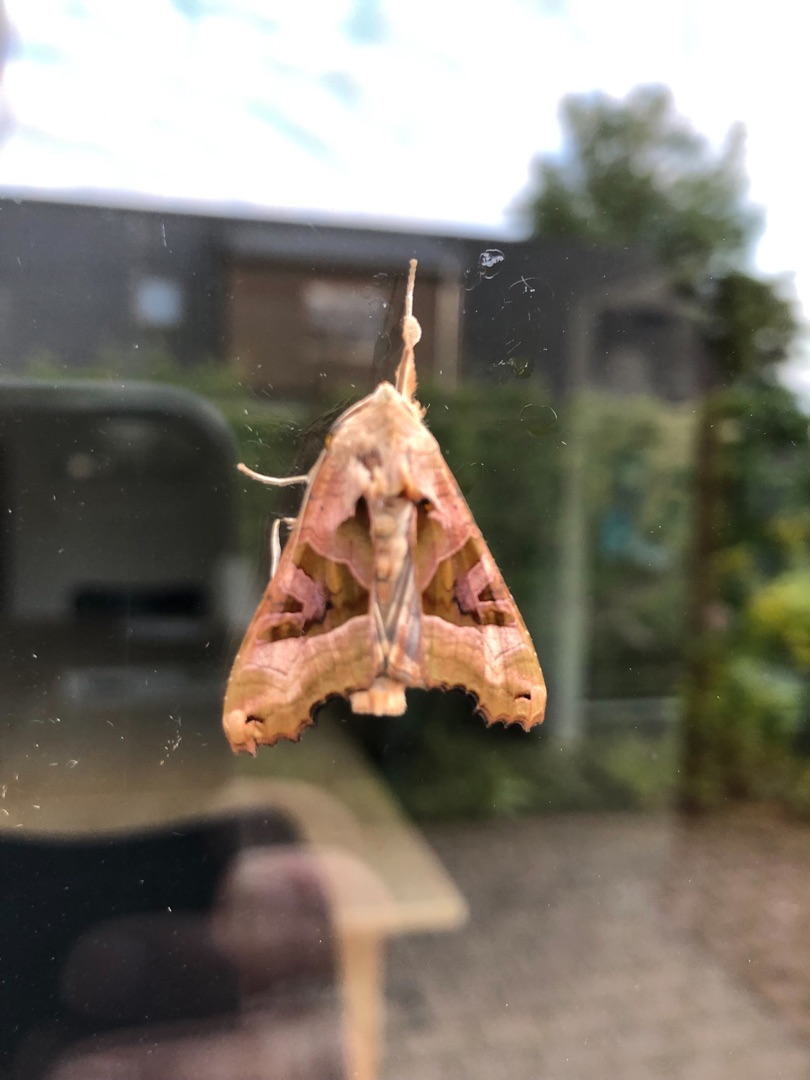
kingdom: Animalia
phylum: Arthropoda
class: Insecta
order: Lepidoptera
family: Noctuidae
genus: Phlogophora
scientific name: Phlogophora meticulosa
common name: Agatugle
